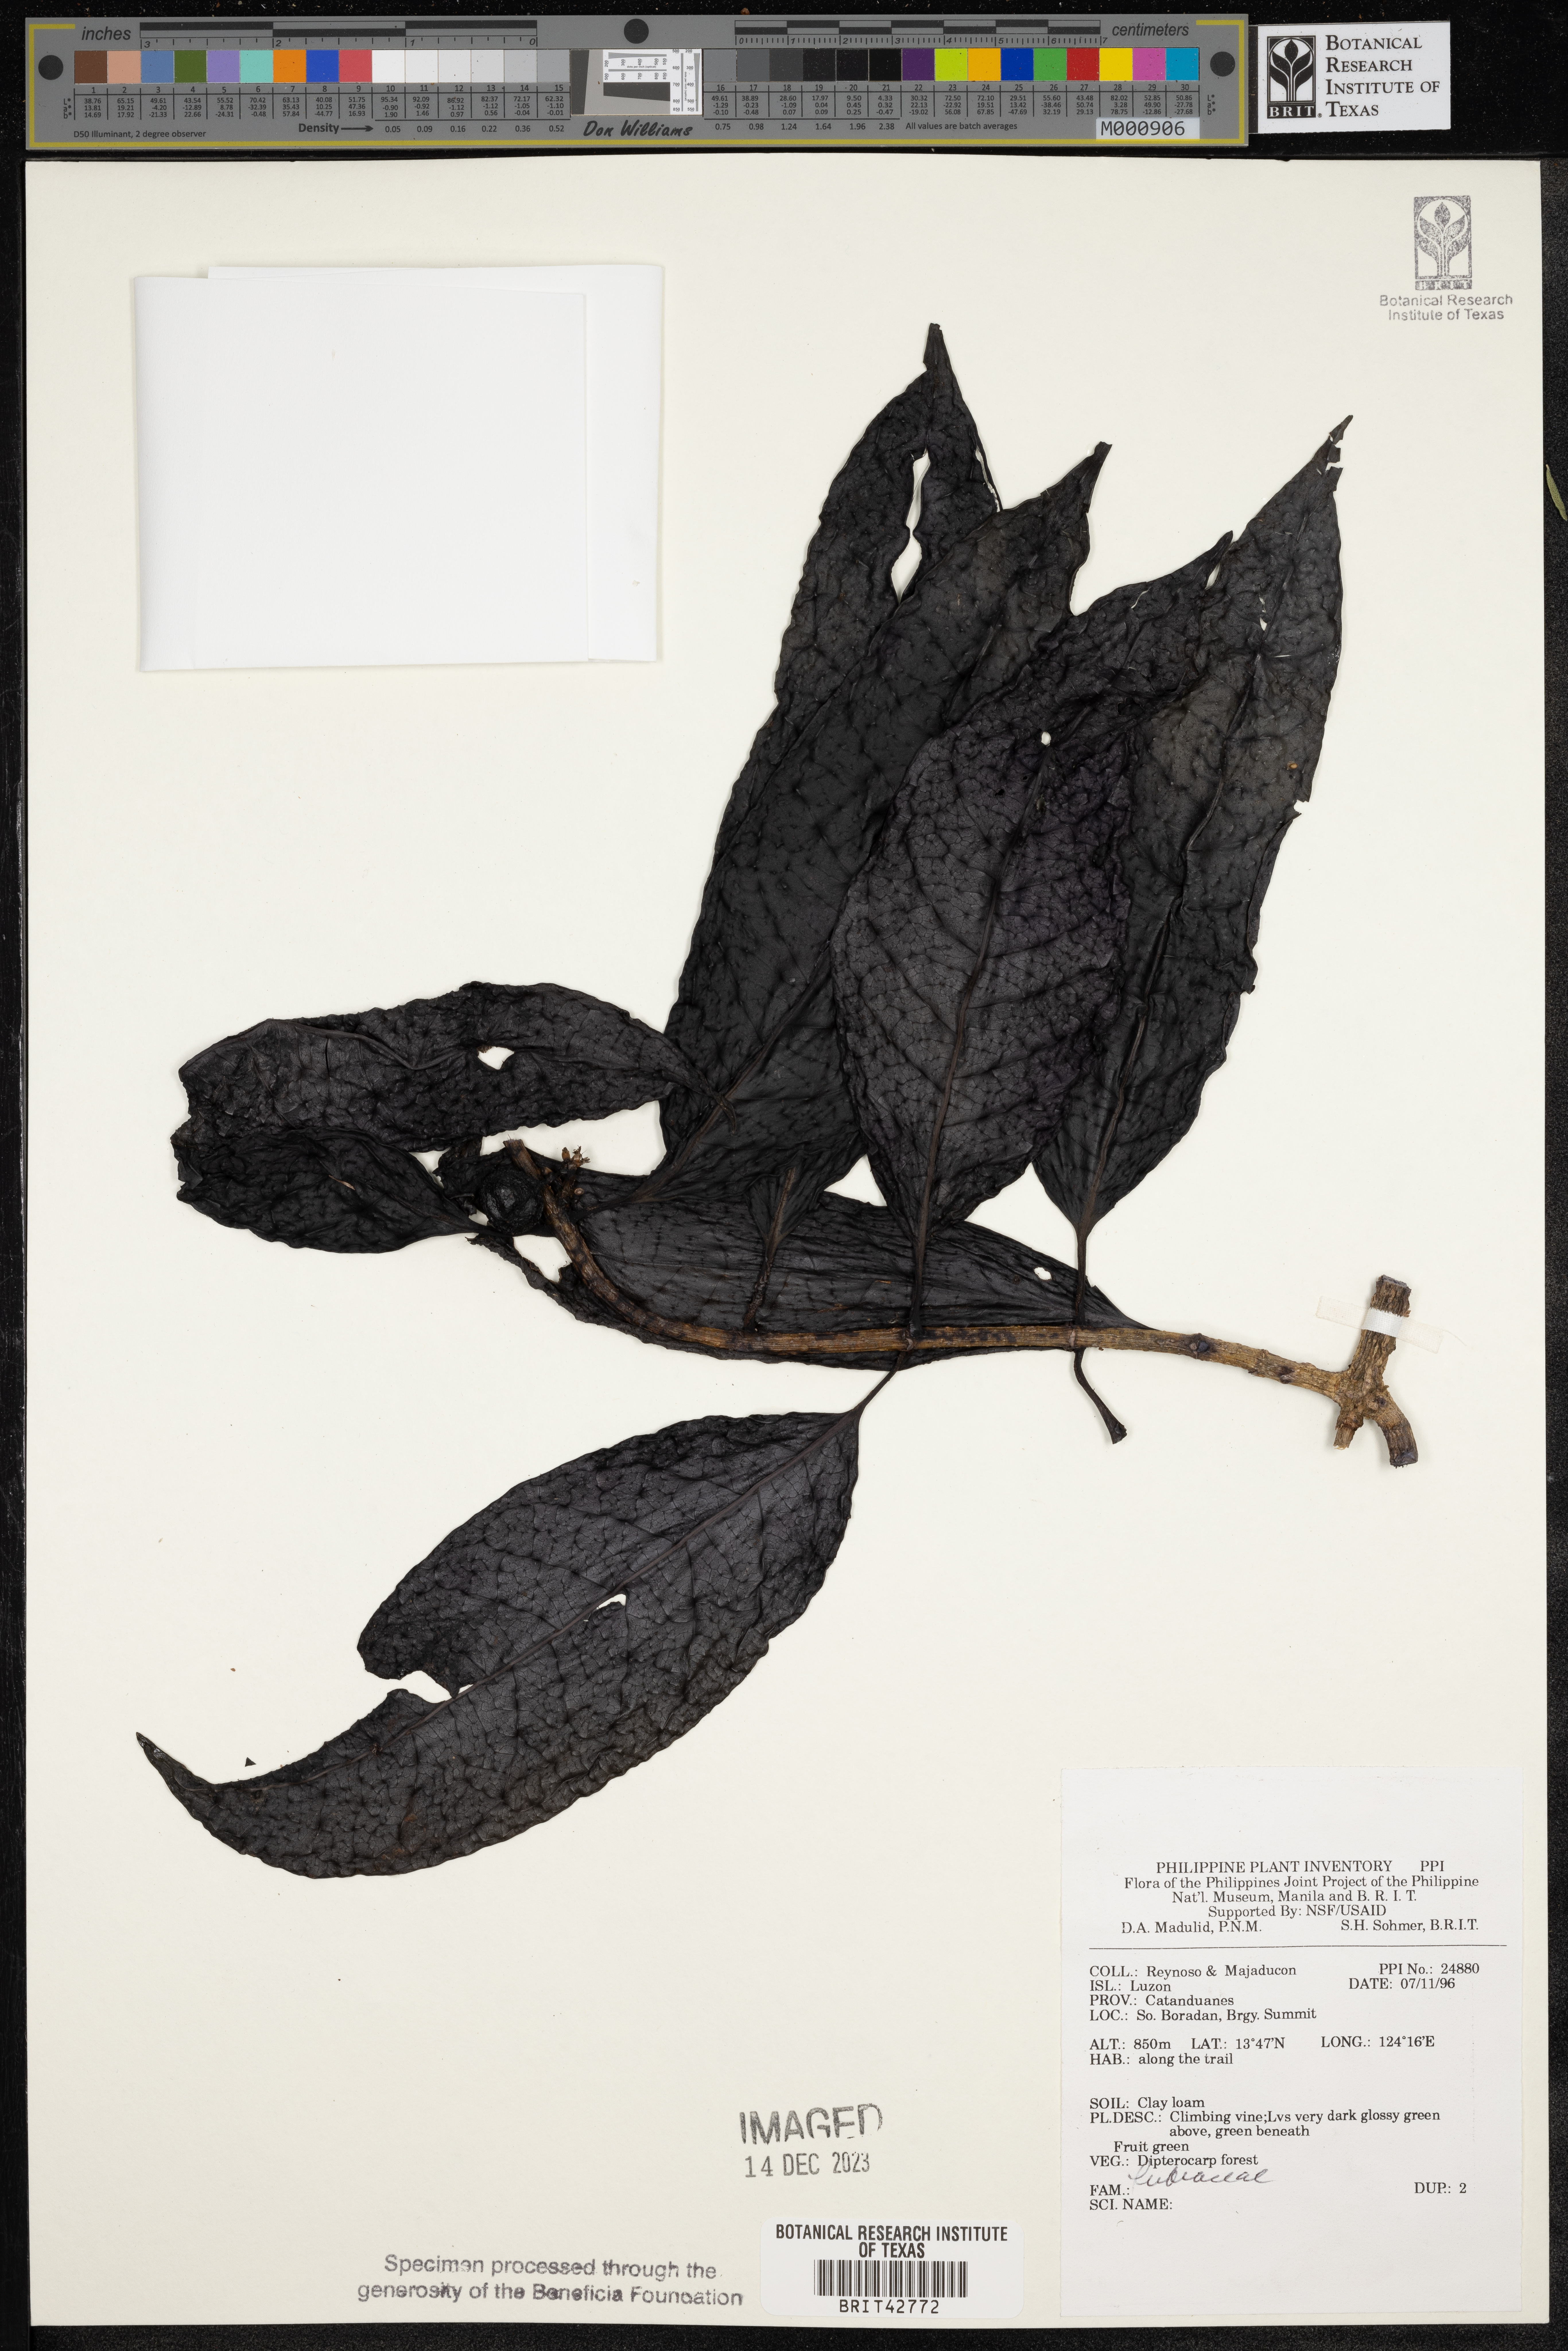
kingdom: Plantae
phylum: Tracheophyta
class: Magnoliopsida
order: Gentianales
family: Rubiaceae
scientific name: Rubiaceae
